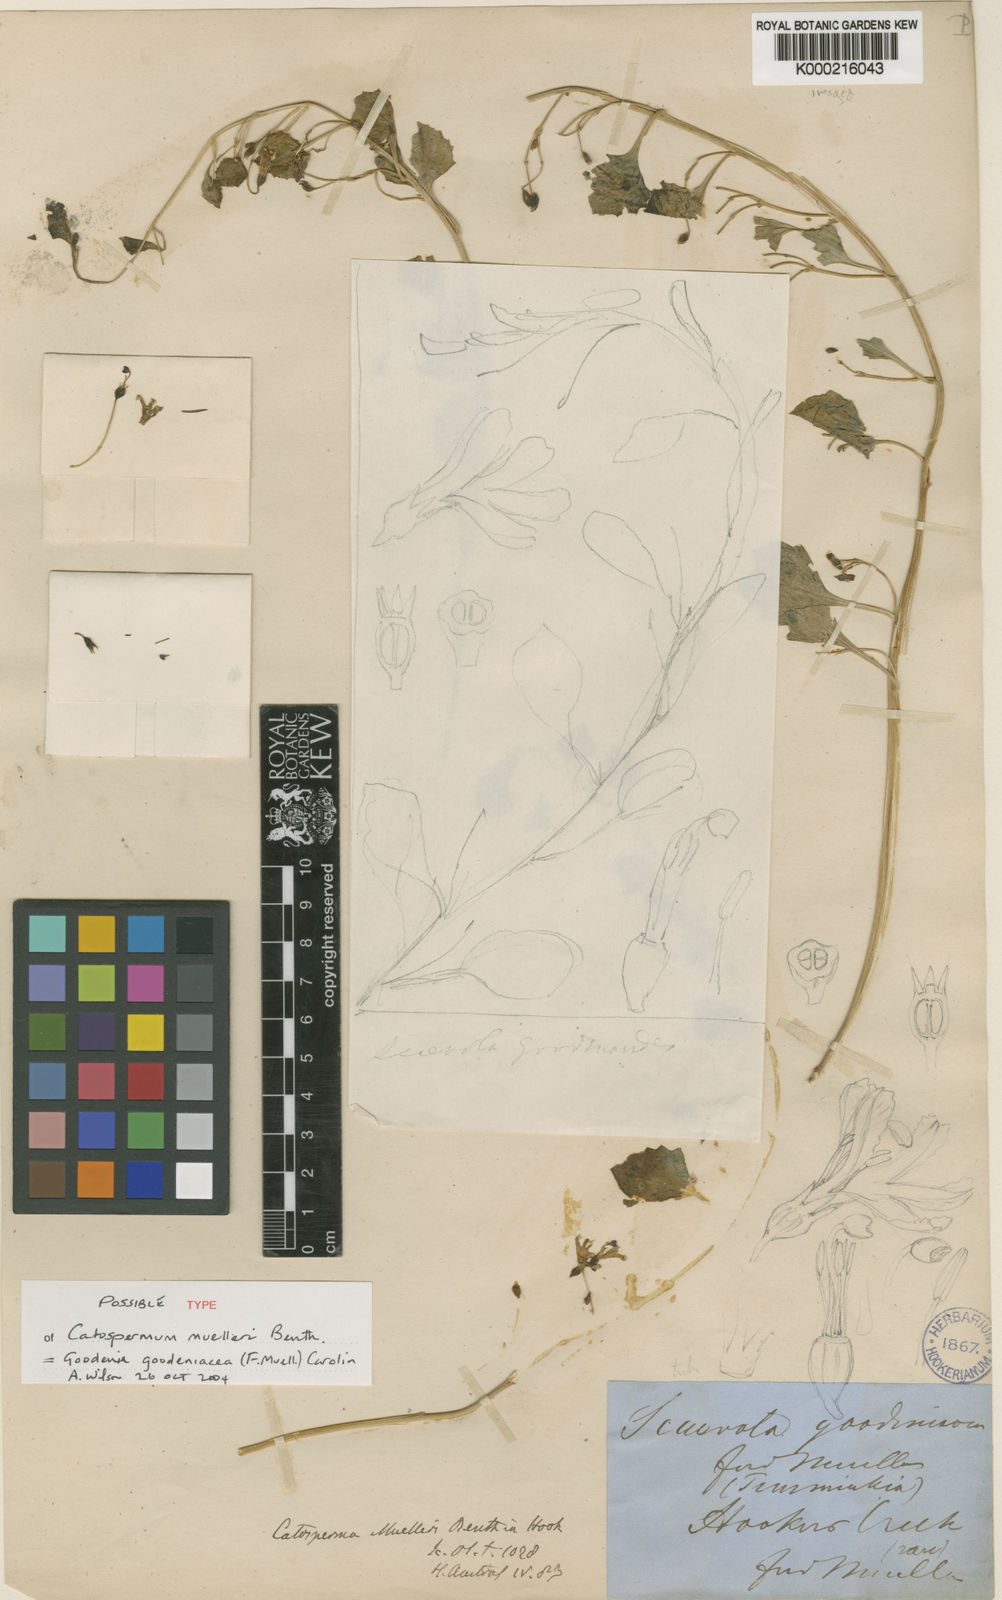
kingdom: Plantae
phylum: Tracheophyta
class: Magnoliopsida
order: Asterales
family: Goodeniaceae
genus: Goodenia
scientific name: Goodenia muelleriana
